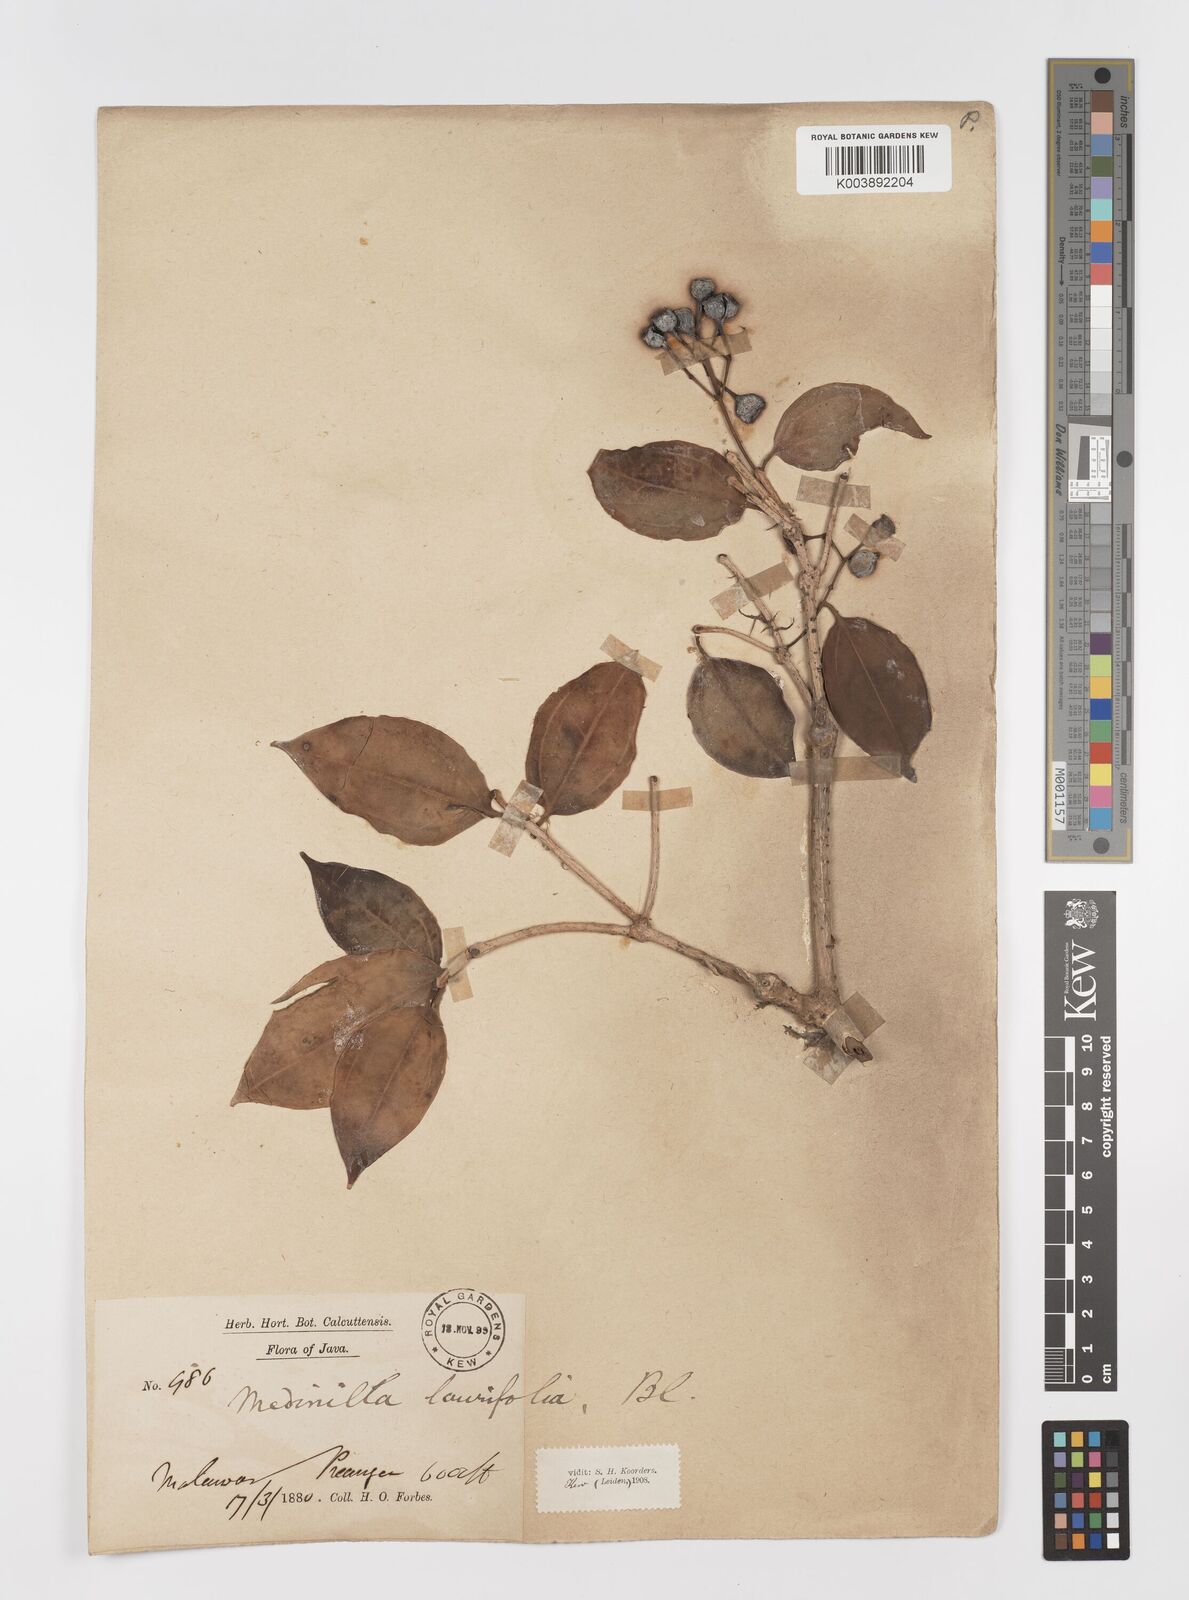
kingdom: Plantae
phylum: Tracheophyta
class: Magnoliopsida
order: Myrtales
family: Melastomataceae
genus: Medinilla
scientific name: Medinilla laurifolia
